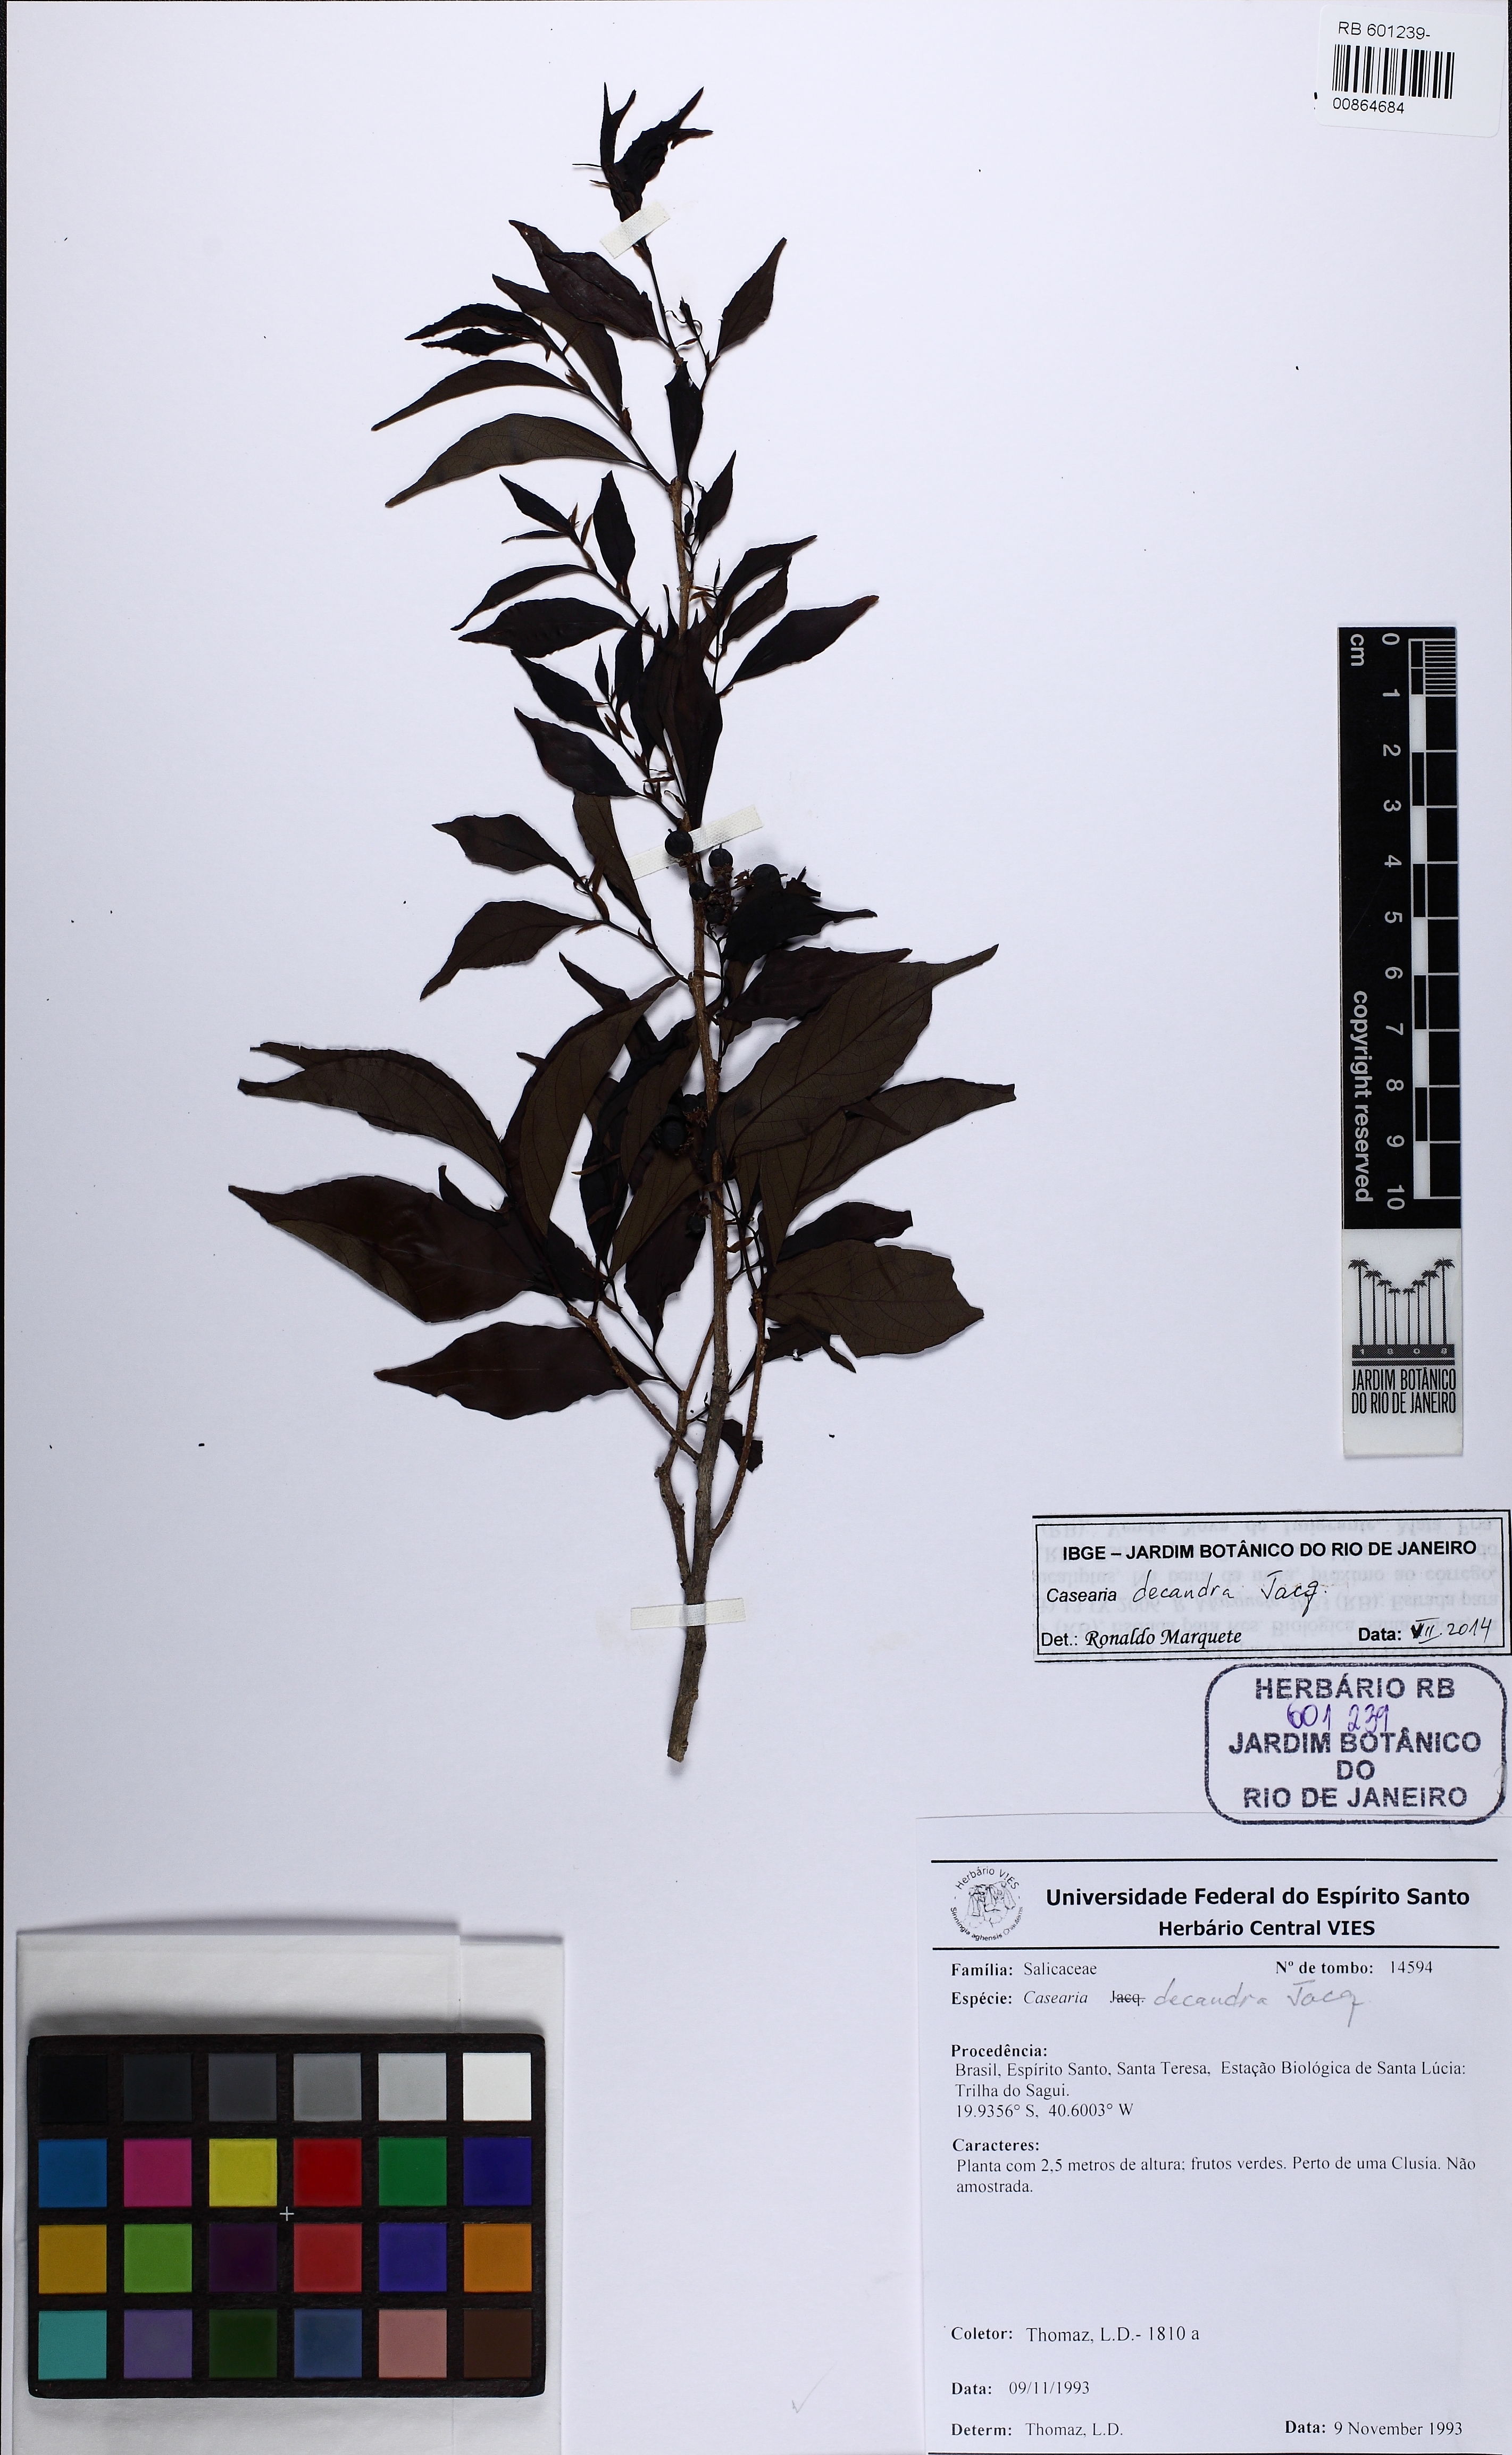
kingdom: Plantae
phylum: Tracheophyta
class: Magnoliopsida
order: Malpighiales
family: Salicaceae
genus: Casearia
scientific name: Casearia decandra
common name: Crack open
